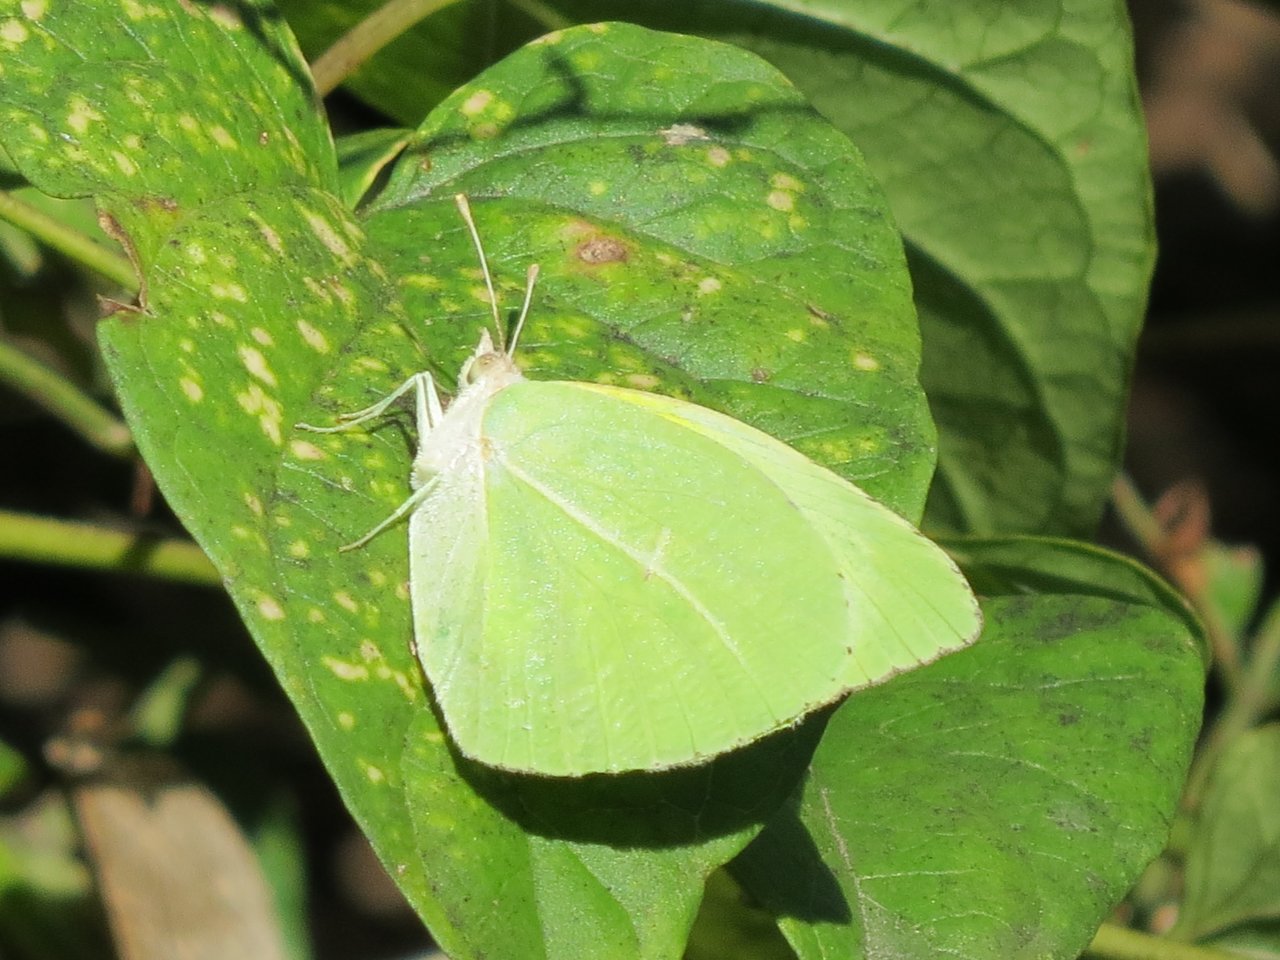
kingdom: Animalia
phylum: Arthropoda
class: Insecta
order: Lepidoptera
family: Pieridae
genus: Kricogonia
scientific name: Kricogonia lyside
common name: Lyside Sulphur
